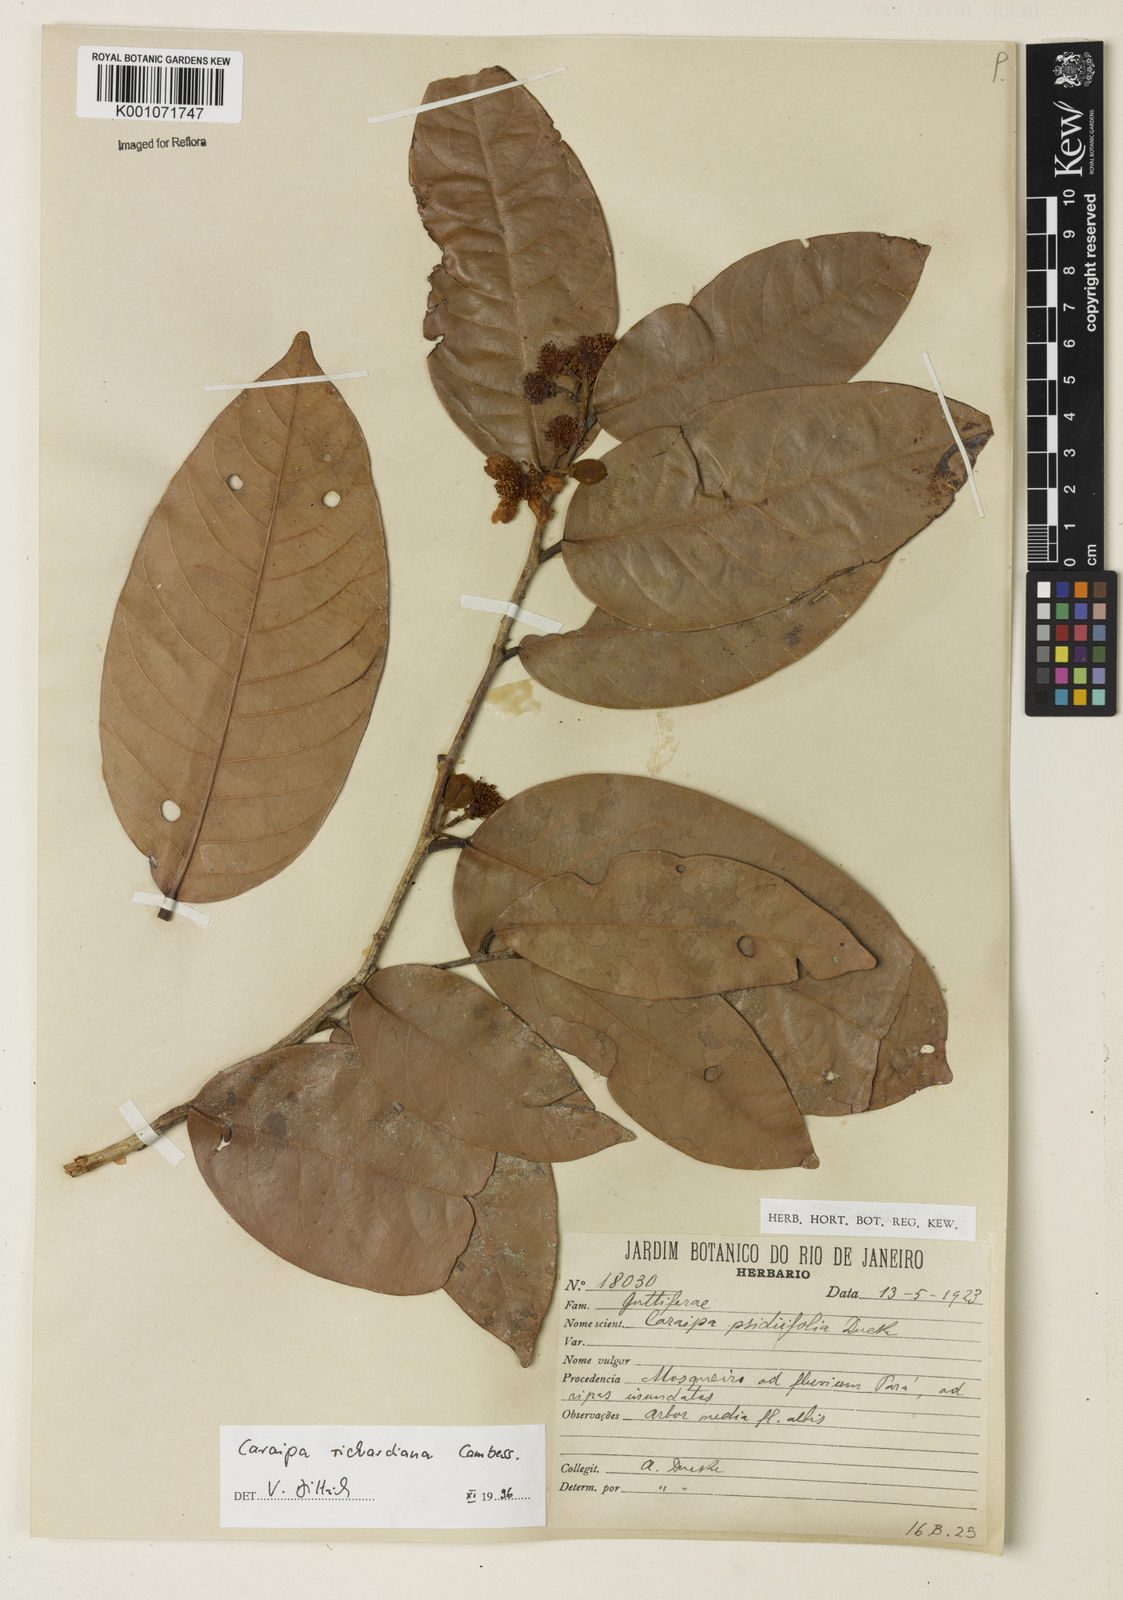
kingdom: Plantae
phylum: Tracheophyta
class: Magnoliopsida
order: Malpighiales
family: Calophyllaceae
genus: Caraipa
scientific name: Caraipa richardiana
